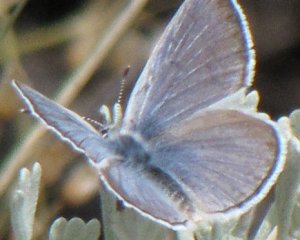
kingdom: Animalia
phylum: Arthropoda
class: Insecta
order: Lepidoptera
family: Lycaenidae
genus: Icaricia
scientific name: Icaricia icarioides
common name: Boisduval's Blue
